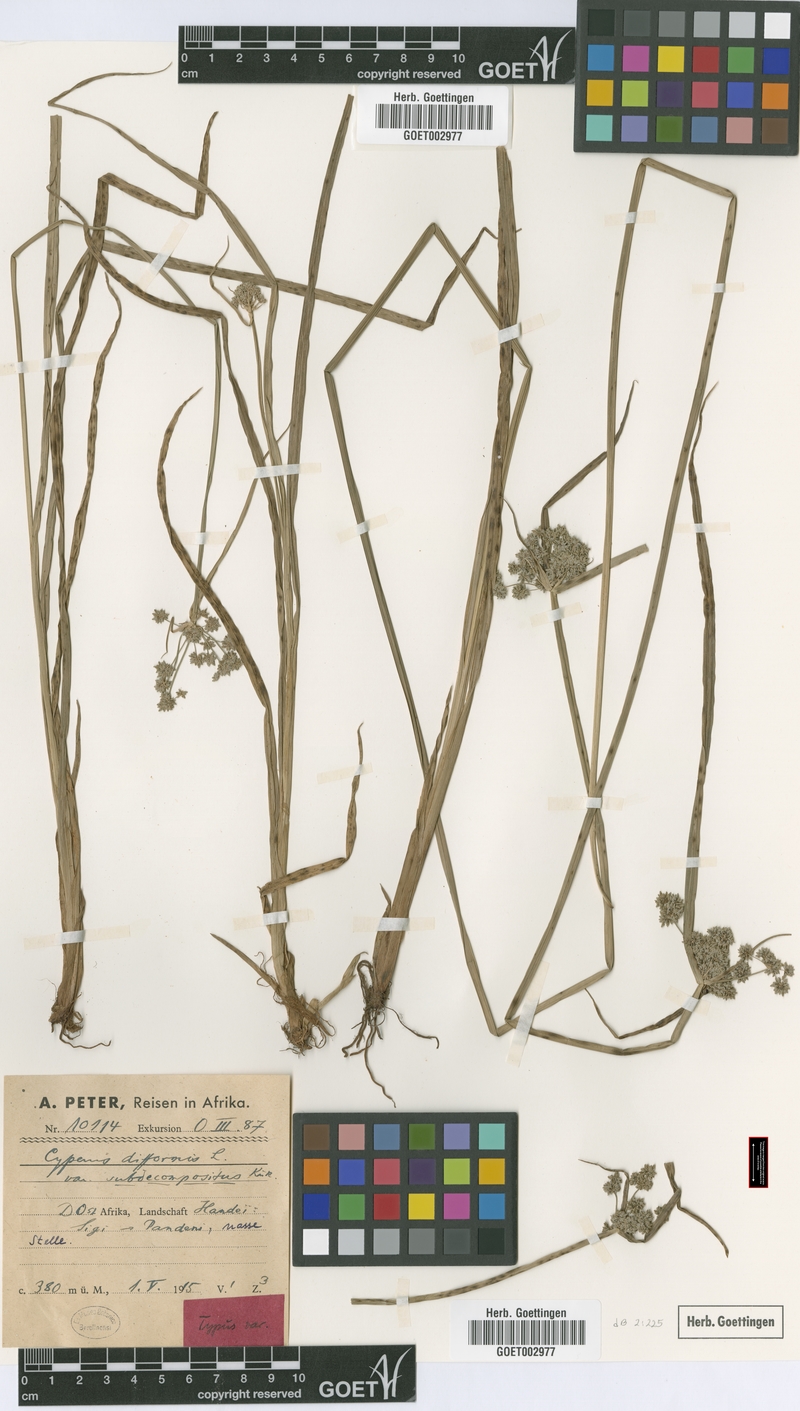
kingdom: Plantae
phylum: Tracheophyta
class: Liliopsida
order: Poales
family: Cyperaceae
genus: Cyperus
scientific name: Cyperus difformis
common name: Variable flatsedge
